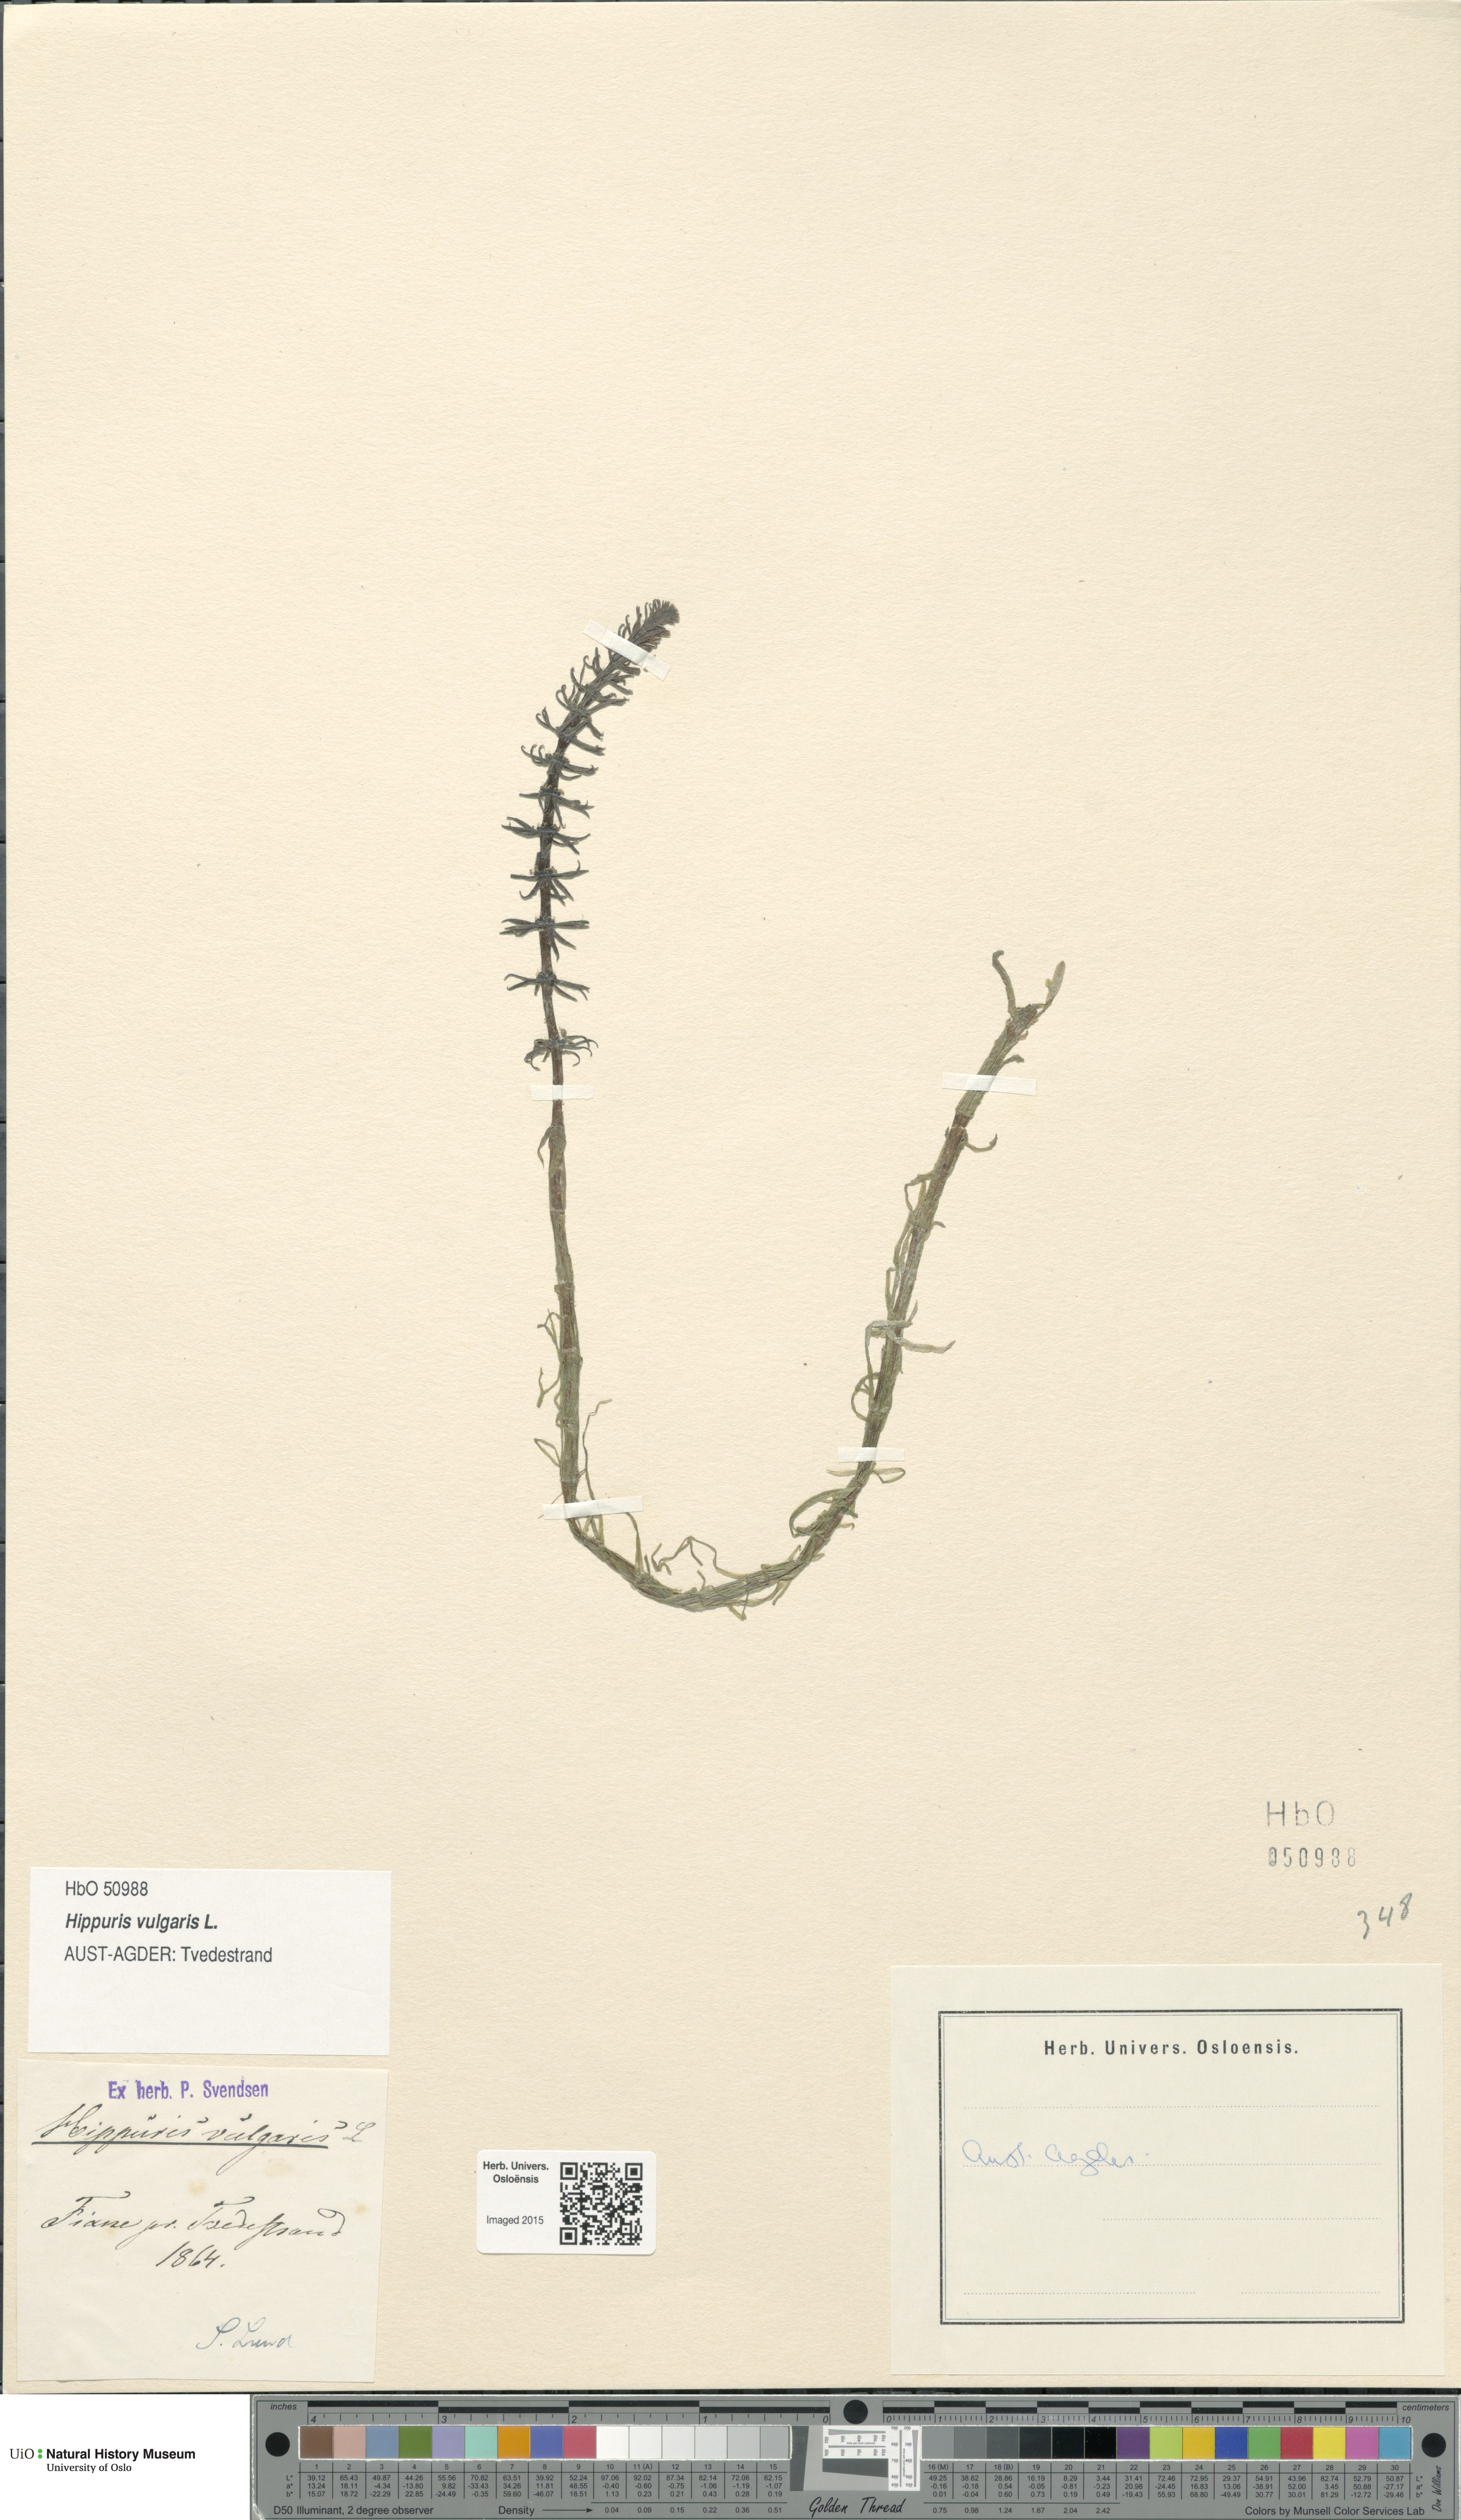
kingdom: Plantae
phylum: Tracheophyta
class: Magnoliopsida
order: Lamiales
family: Plantaginaceae
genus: Hippuris
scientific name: Hippuris vulgaris
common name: Mare's-tail
